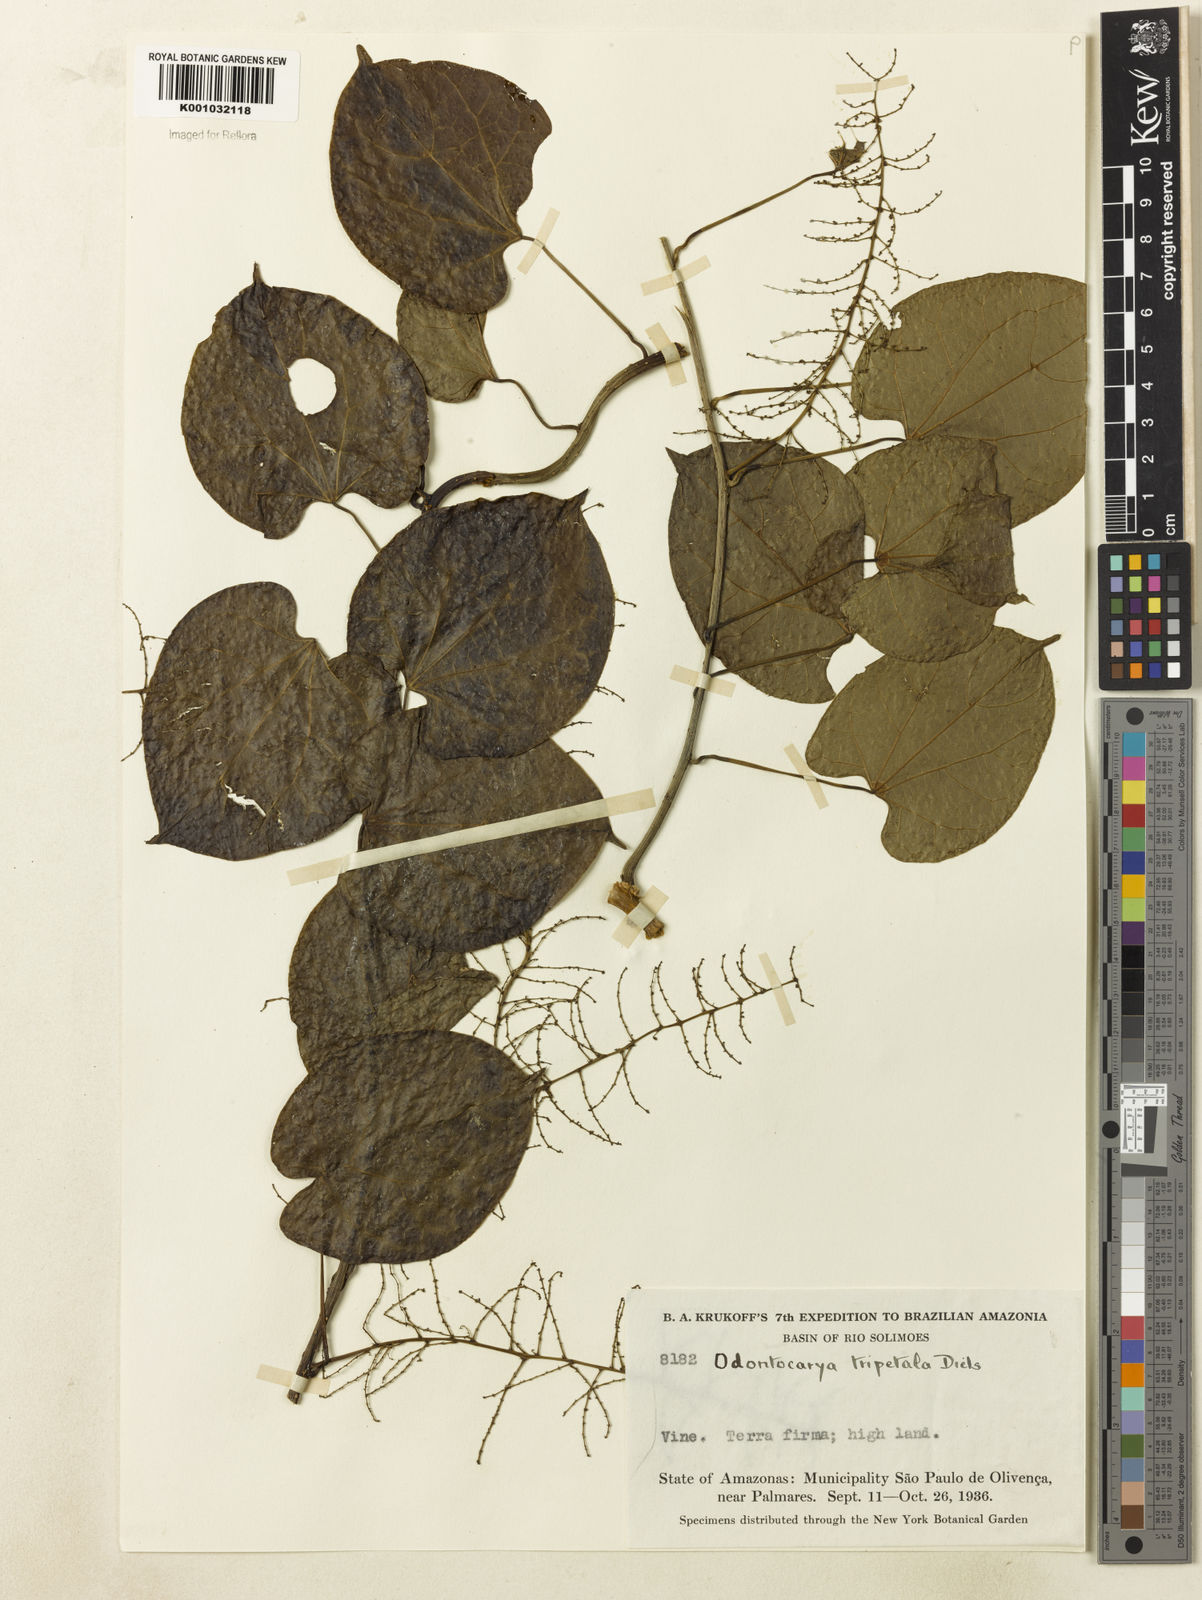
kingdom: Plantae
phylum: Tracheophyta
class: Magnoliopsida
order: Ranunculales
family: Menispermaceae
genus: Odontocarya
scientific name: Odontocarya tripetala
